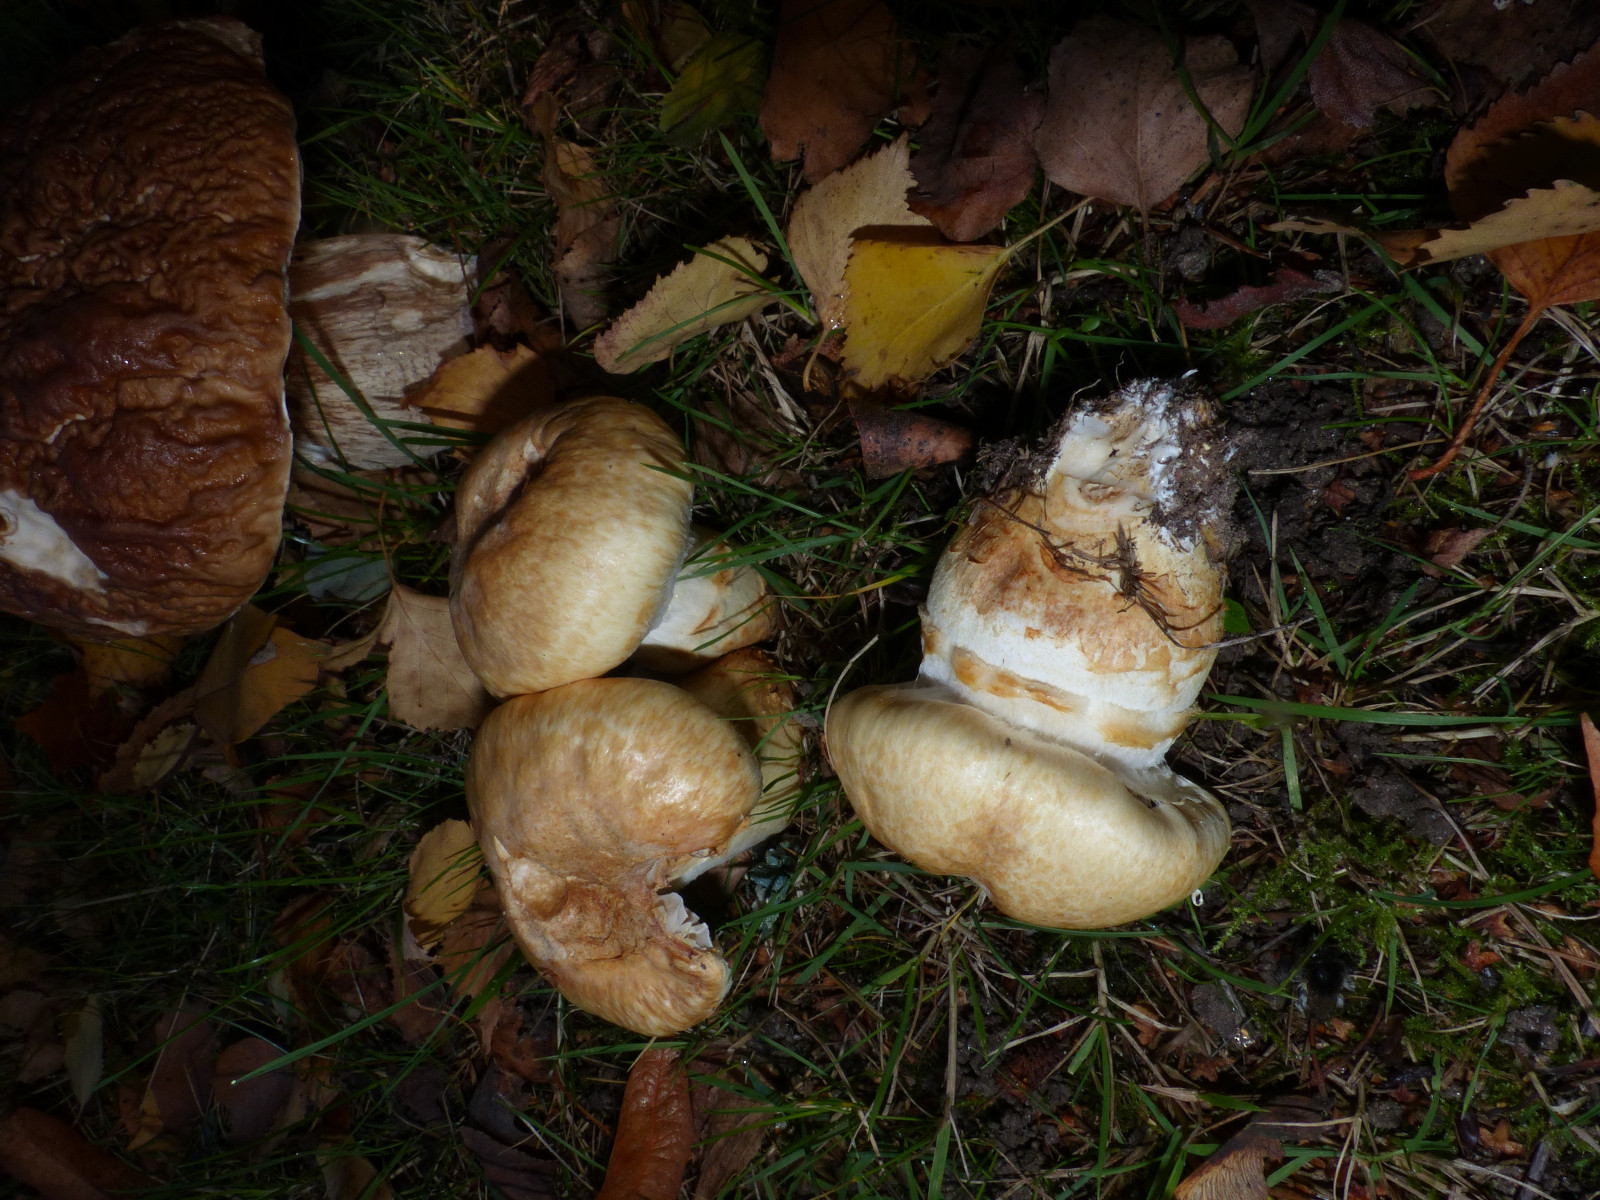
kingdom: Fungi
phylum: Basidiomycota
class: Agaricomycetes
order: Agaricales
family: Cortinariaceae
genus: Phlegmacium
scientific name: Phlegmacium triumphans
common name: gulbæltet slørhat
